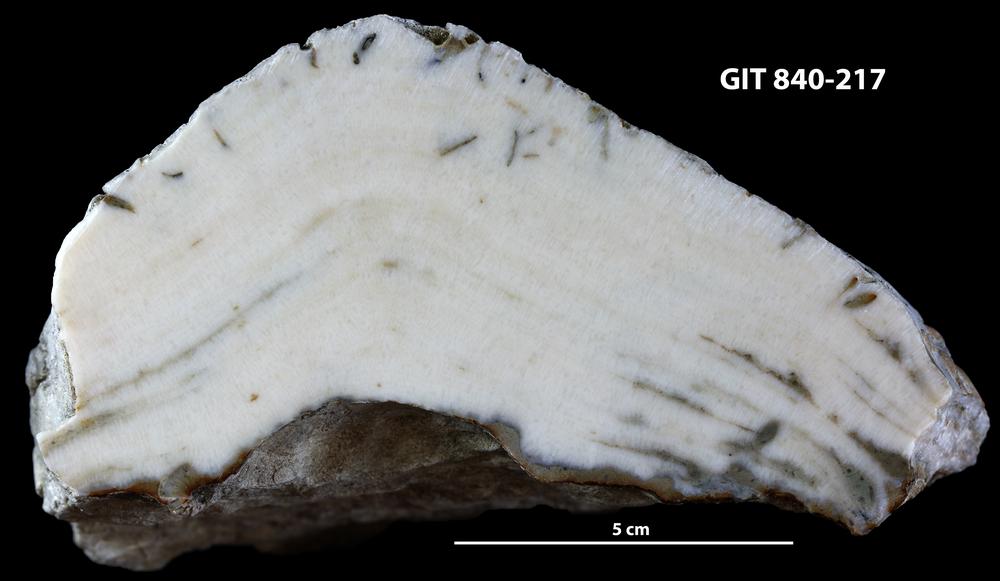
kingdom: Animalia
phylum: Cnidaria
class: Anthozoa
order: Heliolitina
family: Heliolitidae
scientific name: Heliolitidae
